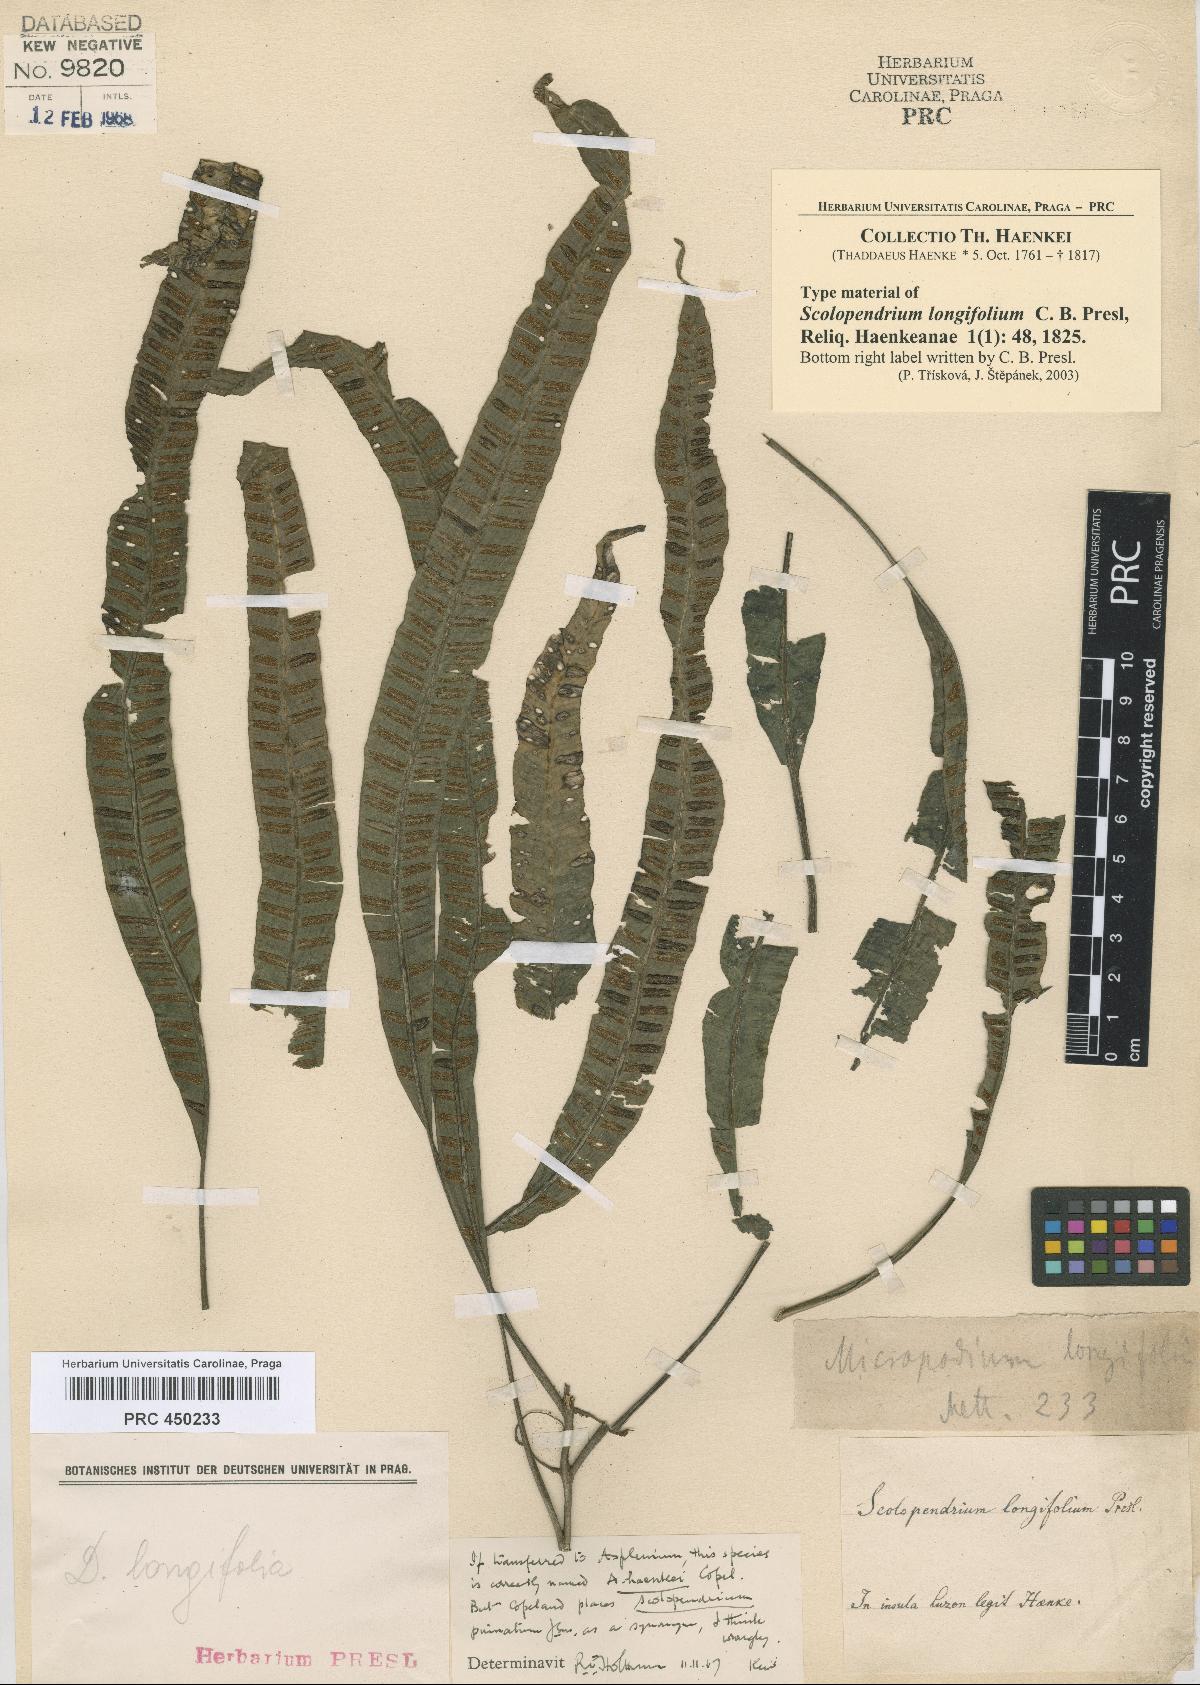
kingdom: Plantae
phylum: Tracheophyta
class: Polypodiopsida
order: Polypodiales
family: Aspleniaceae
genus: Asplenium
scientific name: Asplenium haenkei
